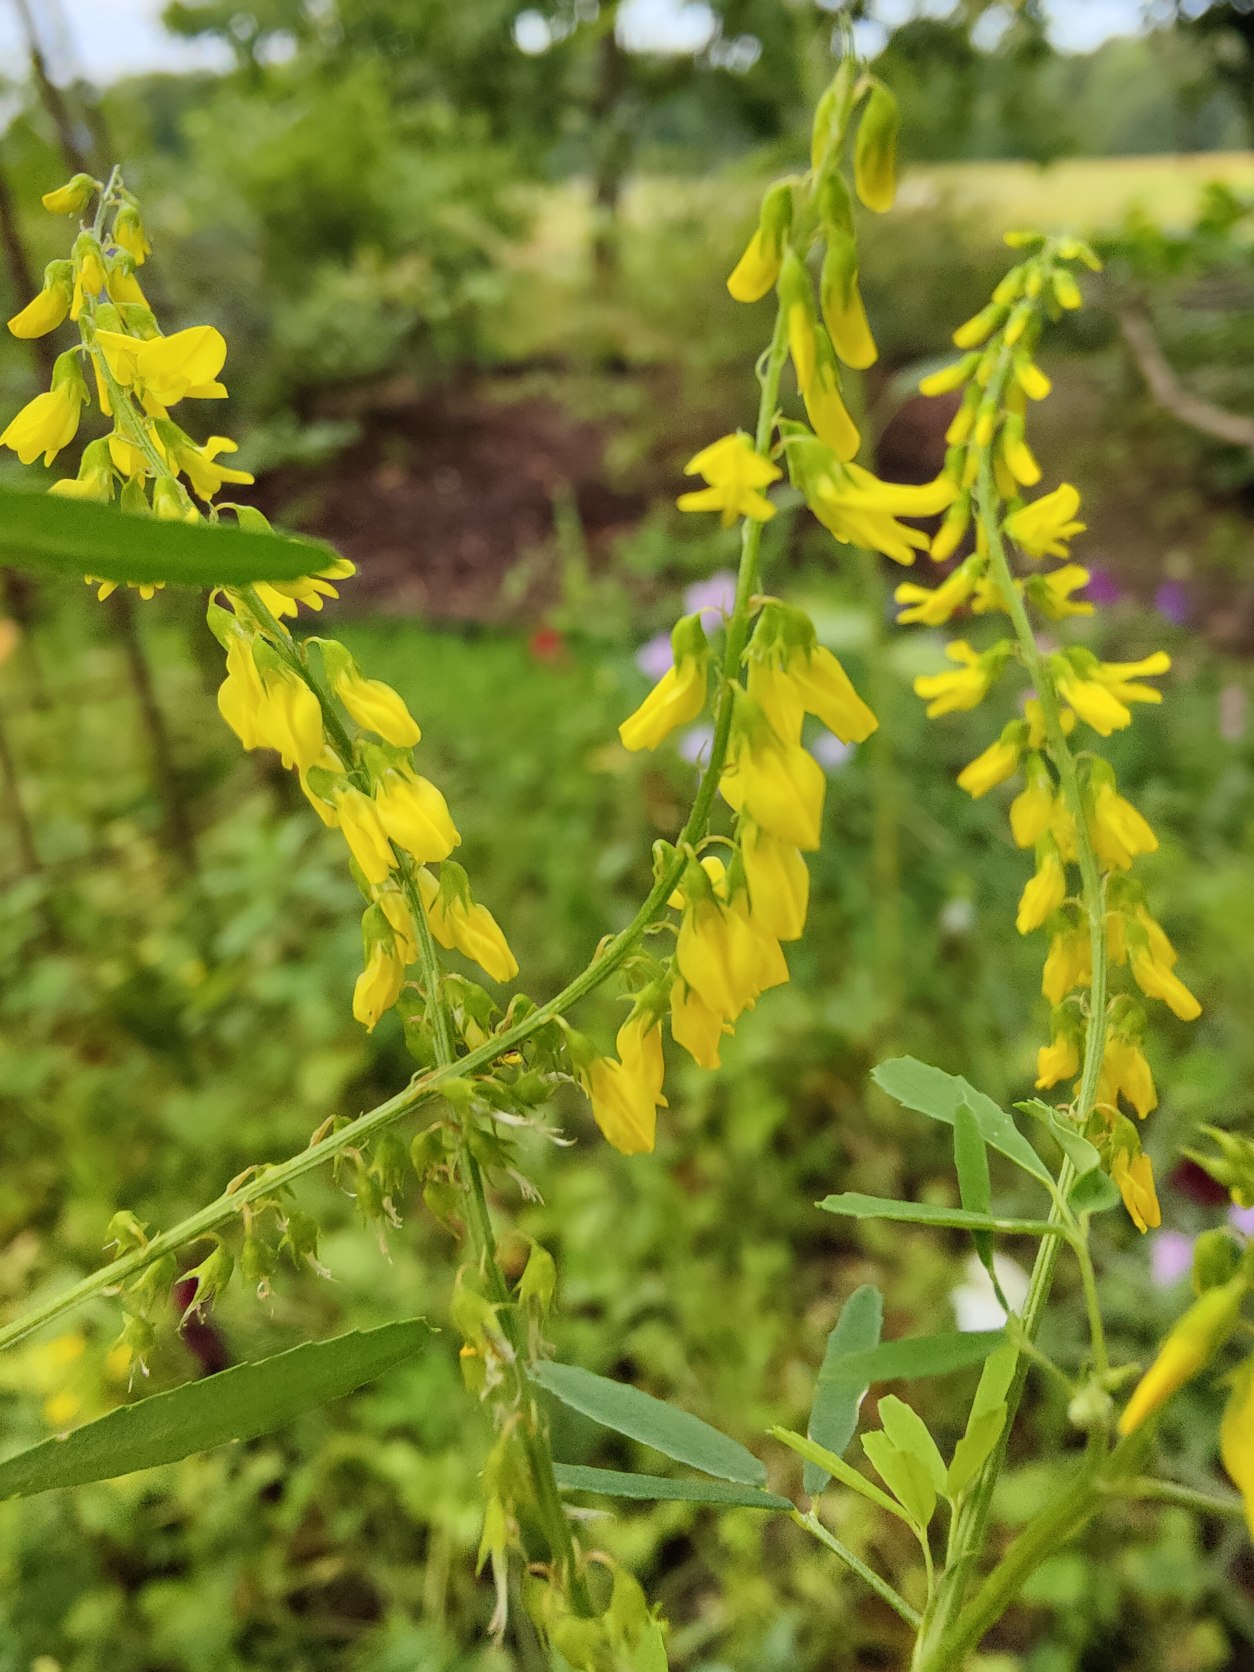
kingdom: Plantae
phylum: Tracheophyta
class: Magnoliopsida
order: Fabales
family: Fabaceae
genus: Melilotus
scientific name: Melilotus officinalis
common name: Mark-stenkløver
